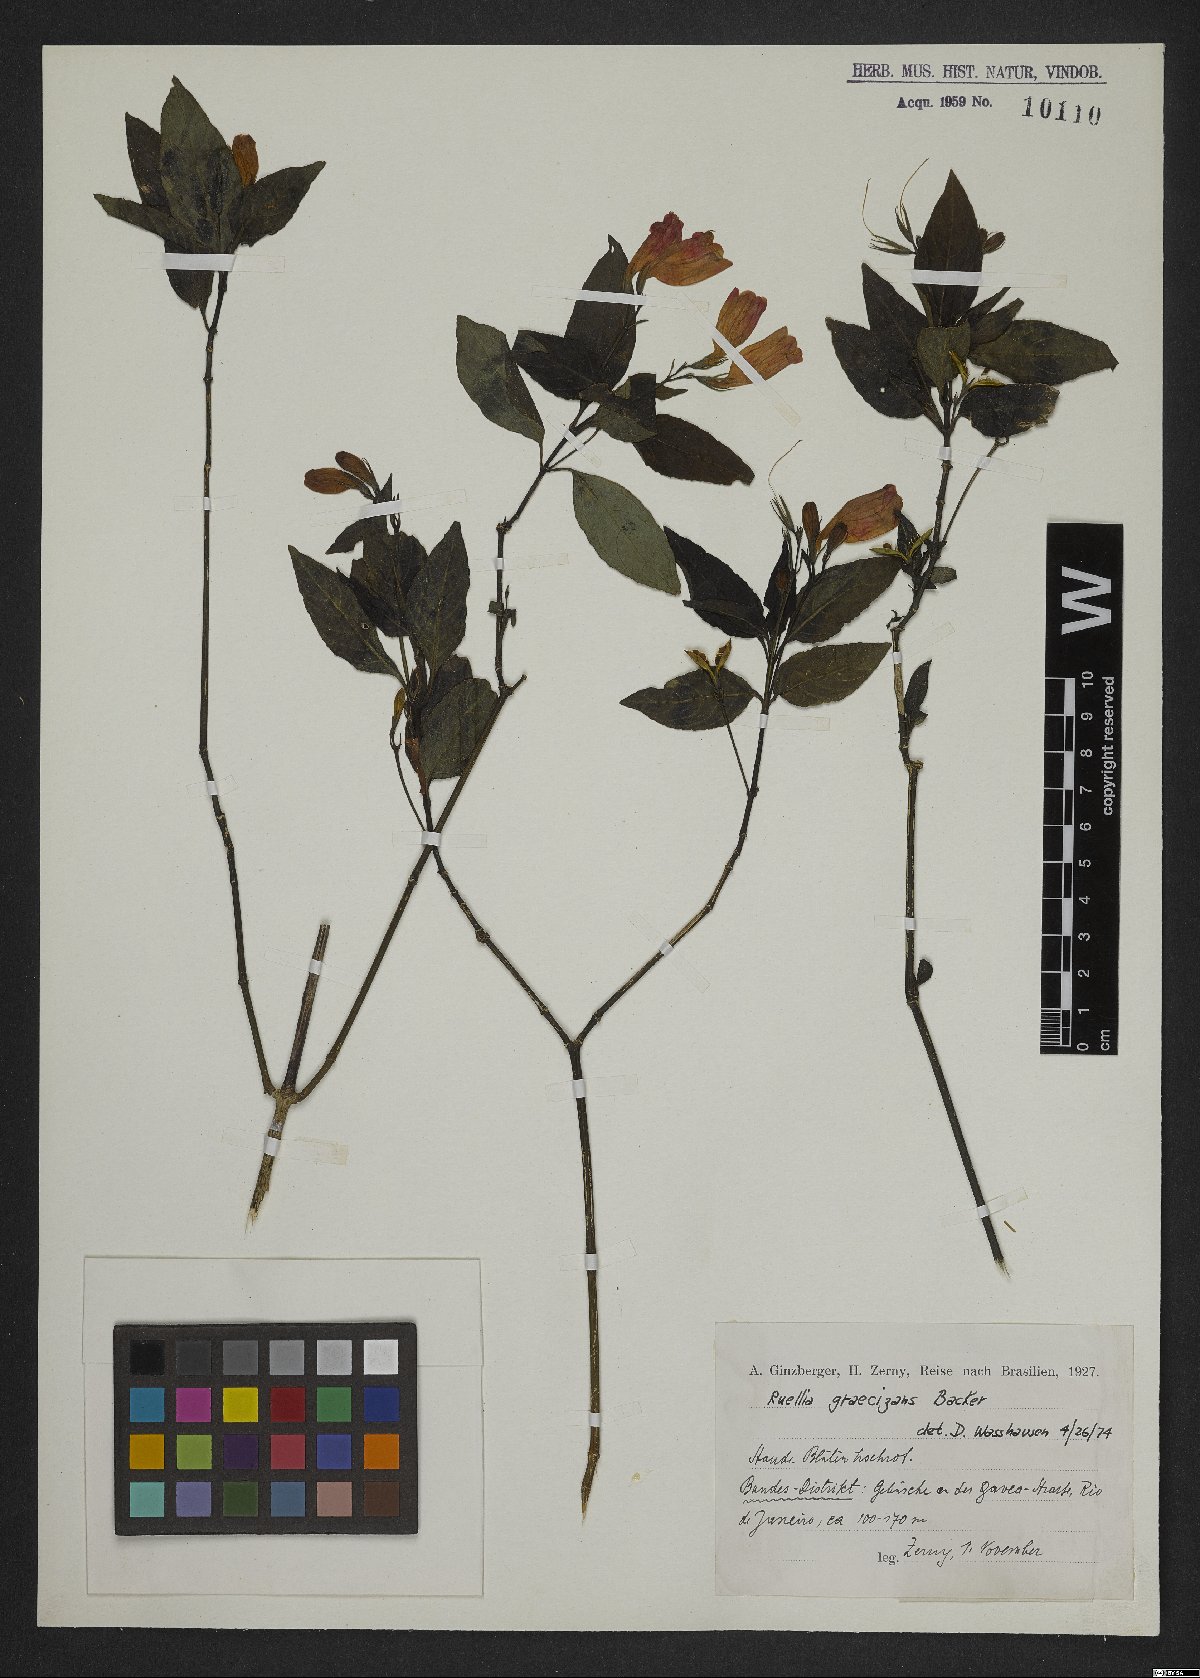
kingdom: Plantae
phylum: Tracheophyta
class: Magnoliopsida
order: Lamiales
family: Acanthaceae
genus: Ruellia
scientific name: Ruellia brevifolia
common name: Tropical wild petunia
